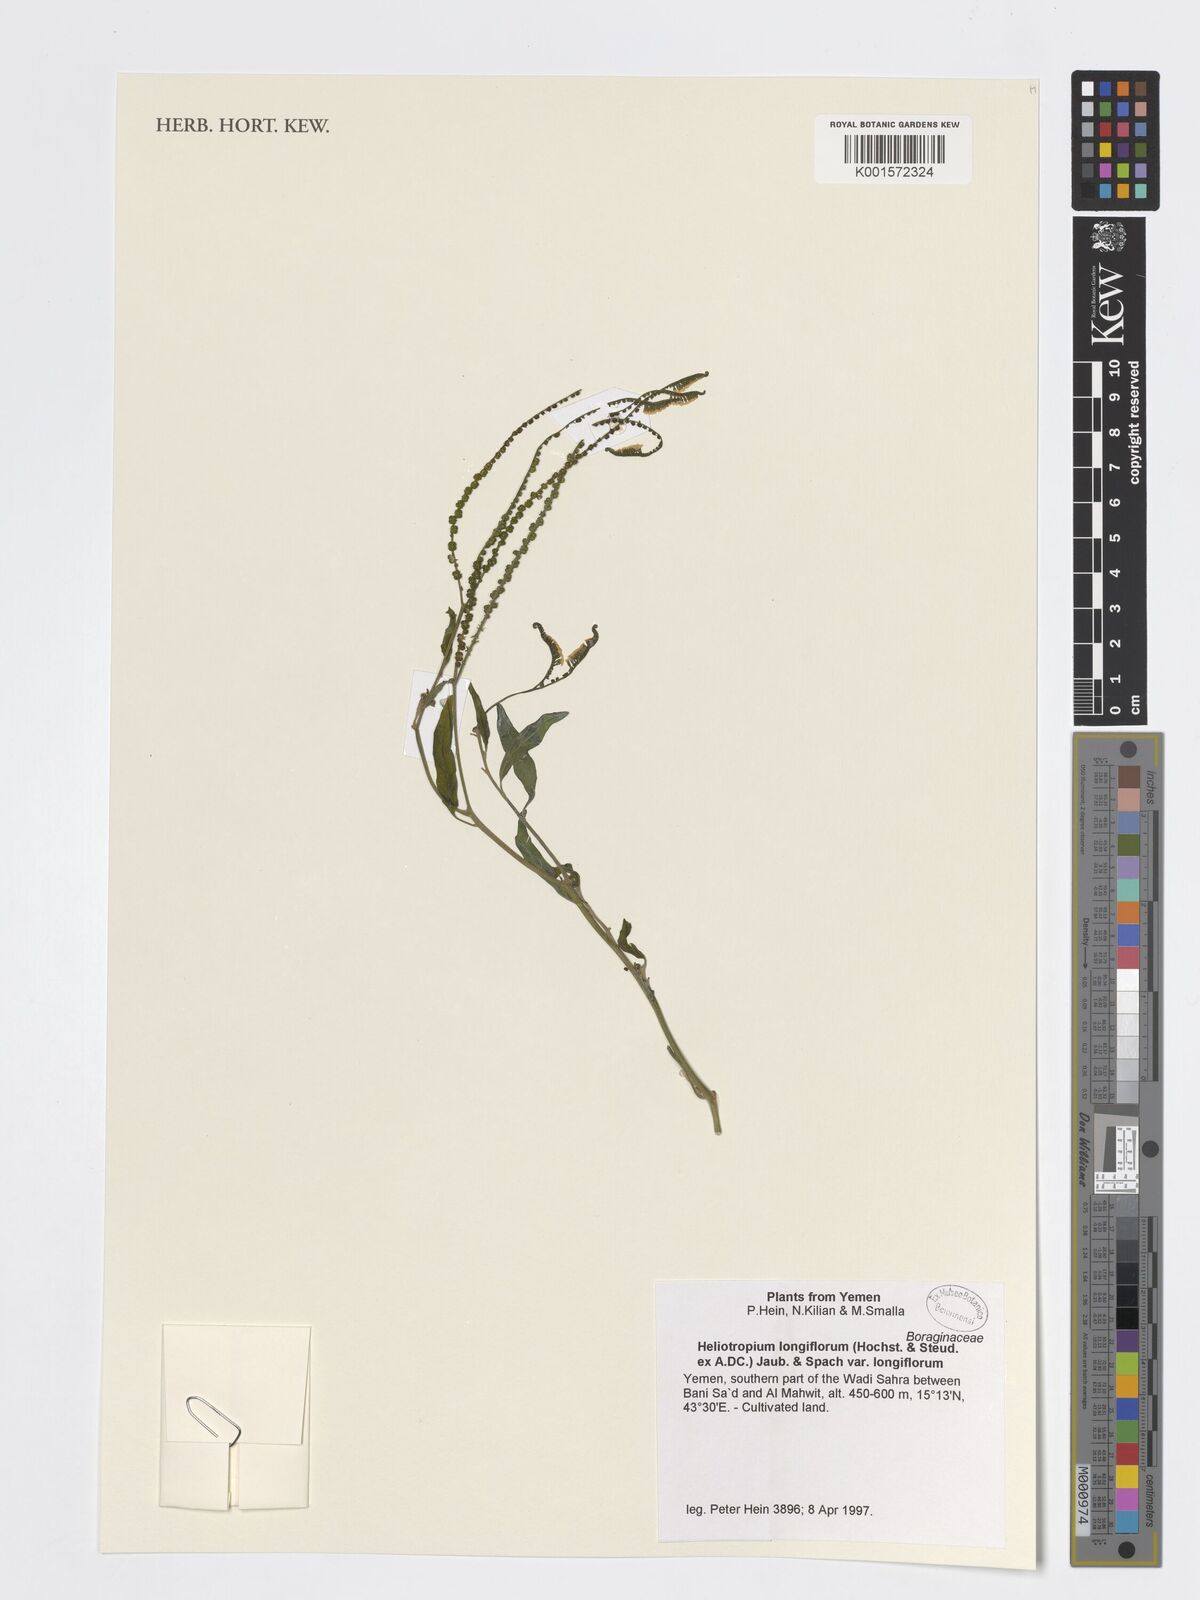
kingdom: Plantae
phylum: Tracheophyta
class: Magnoliopsida
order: Boraginales
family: Heliotropiaceae
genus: Heliotropium
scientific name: Heliotropium longiflorum
